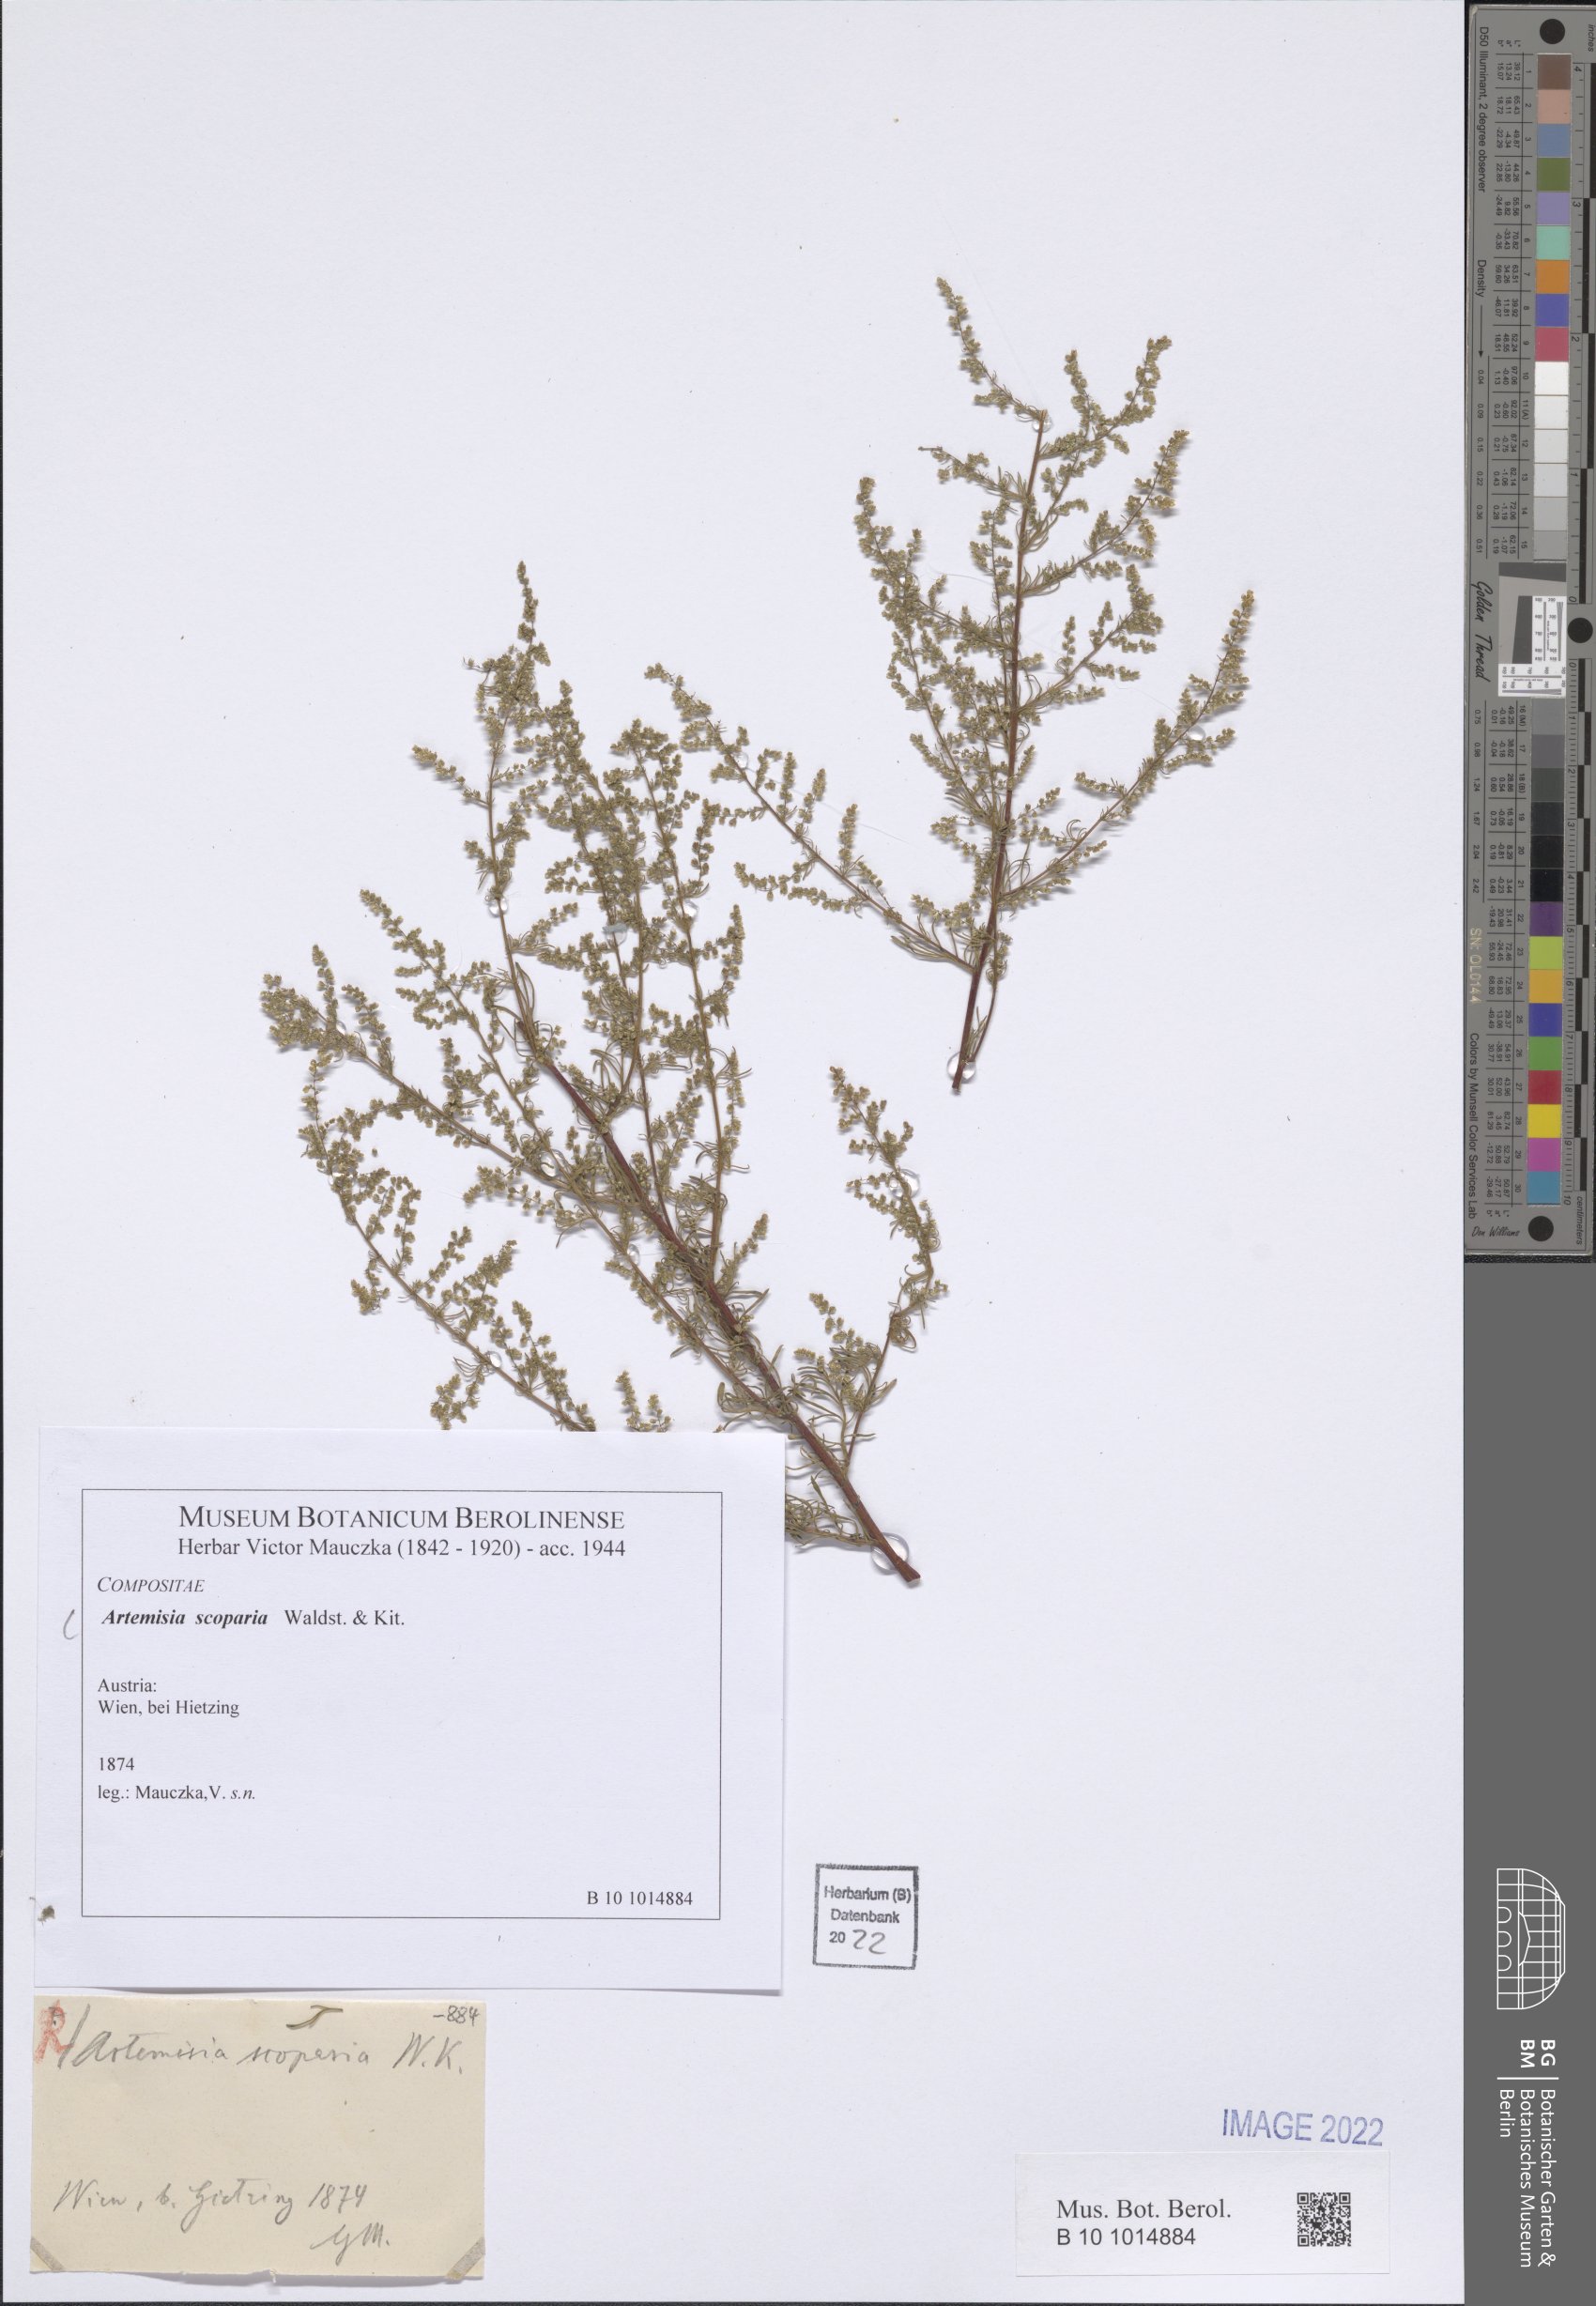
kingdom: Plantae
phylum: Tracheophyta
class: Magnoliopsida
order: Asterales
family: Asteraceae
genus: Artemisia
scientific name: Artemisia scoparia
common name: Redstem wormwood
